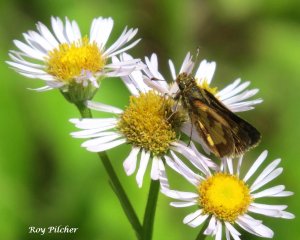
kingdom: Animalia
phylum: Arthropoda
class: Insecta
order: Lepidoptera
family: Hesperiidae
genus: Polites
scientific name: Polites coras
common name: Peck's Skipper
